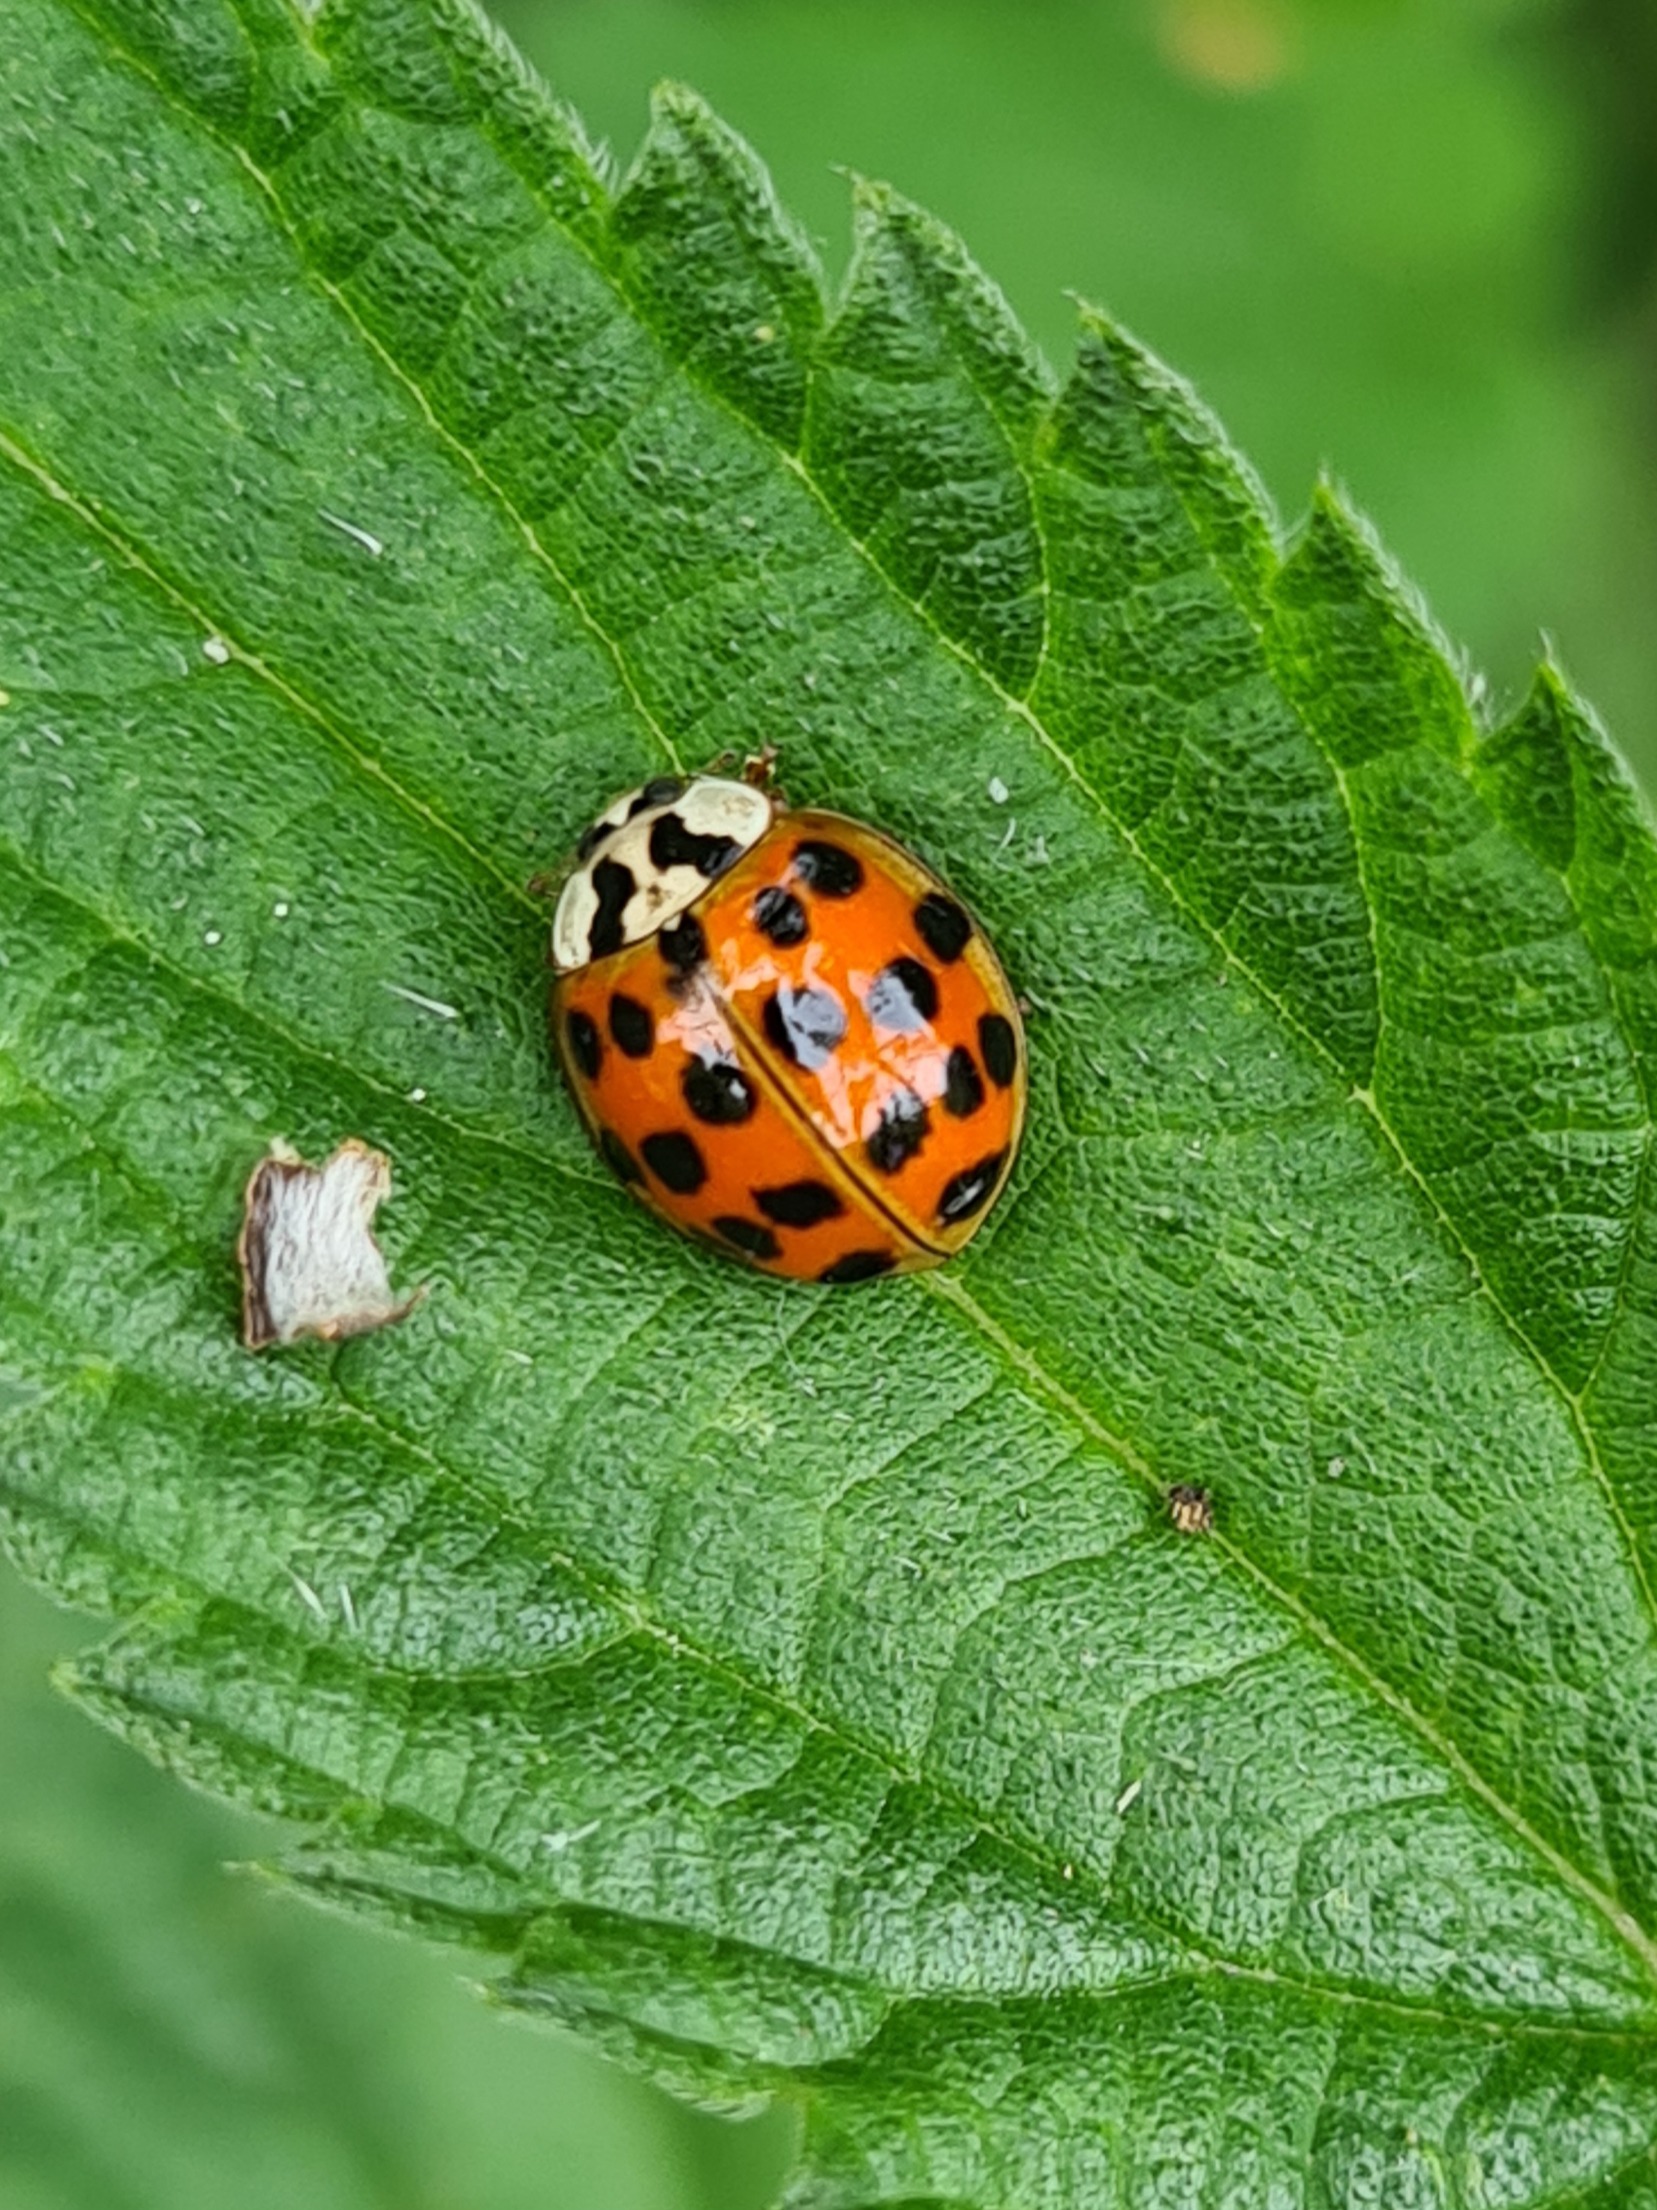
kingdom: Animalia
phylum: Arthropoda
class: Insecta
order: Coleoptera
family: Coccinellidae
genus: Harmonia
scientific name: Harmonia axyridis
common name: Harlekinmariehøne
